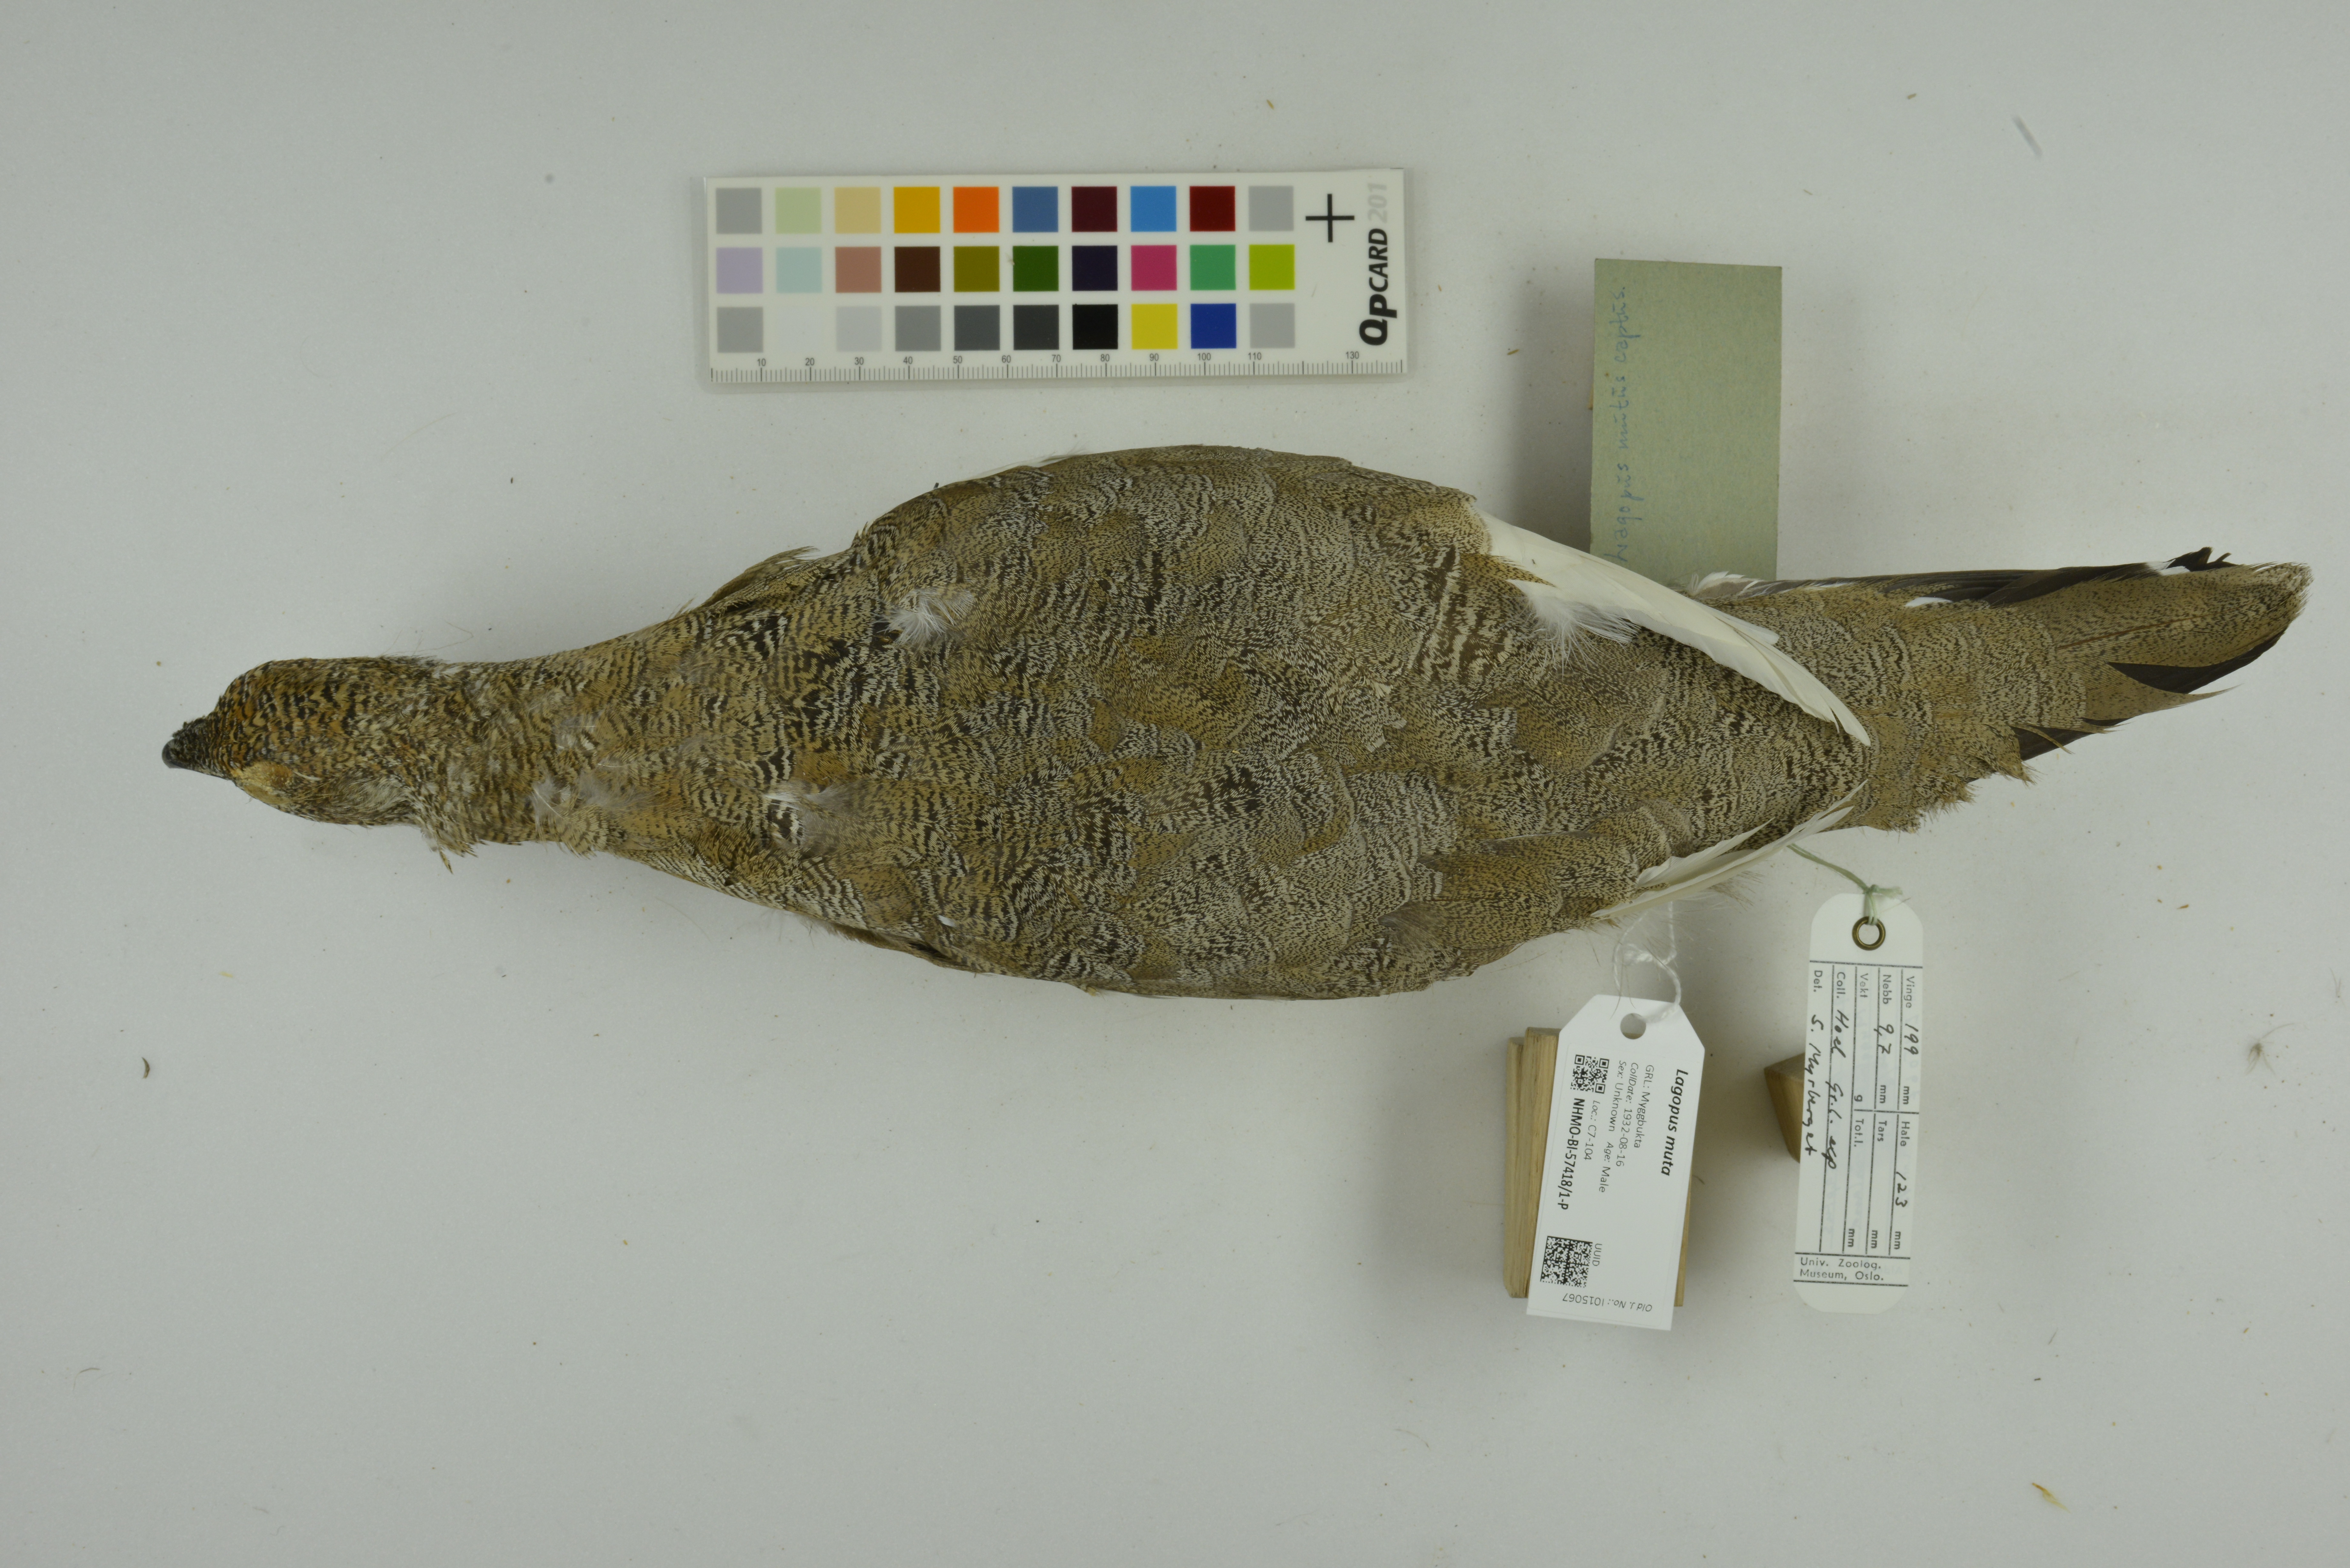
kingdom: Animalia
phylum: Chordata
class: Aves
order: Galliformes
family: Phasianidae
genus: Lagopus
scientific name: Lagopus muta
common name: Rock ptarmigan
